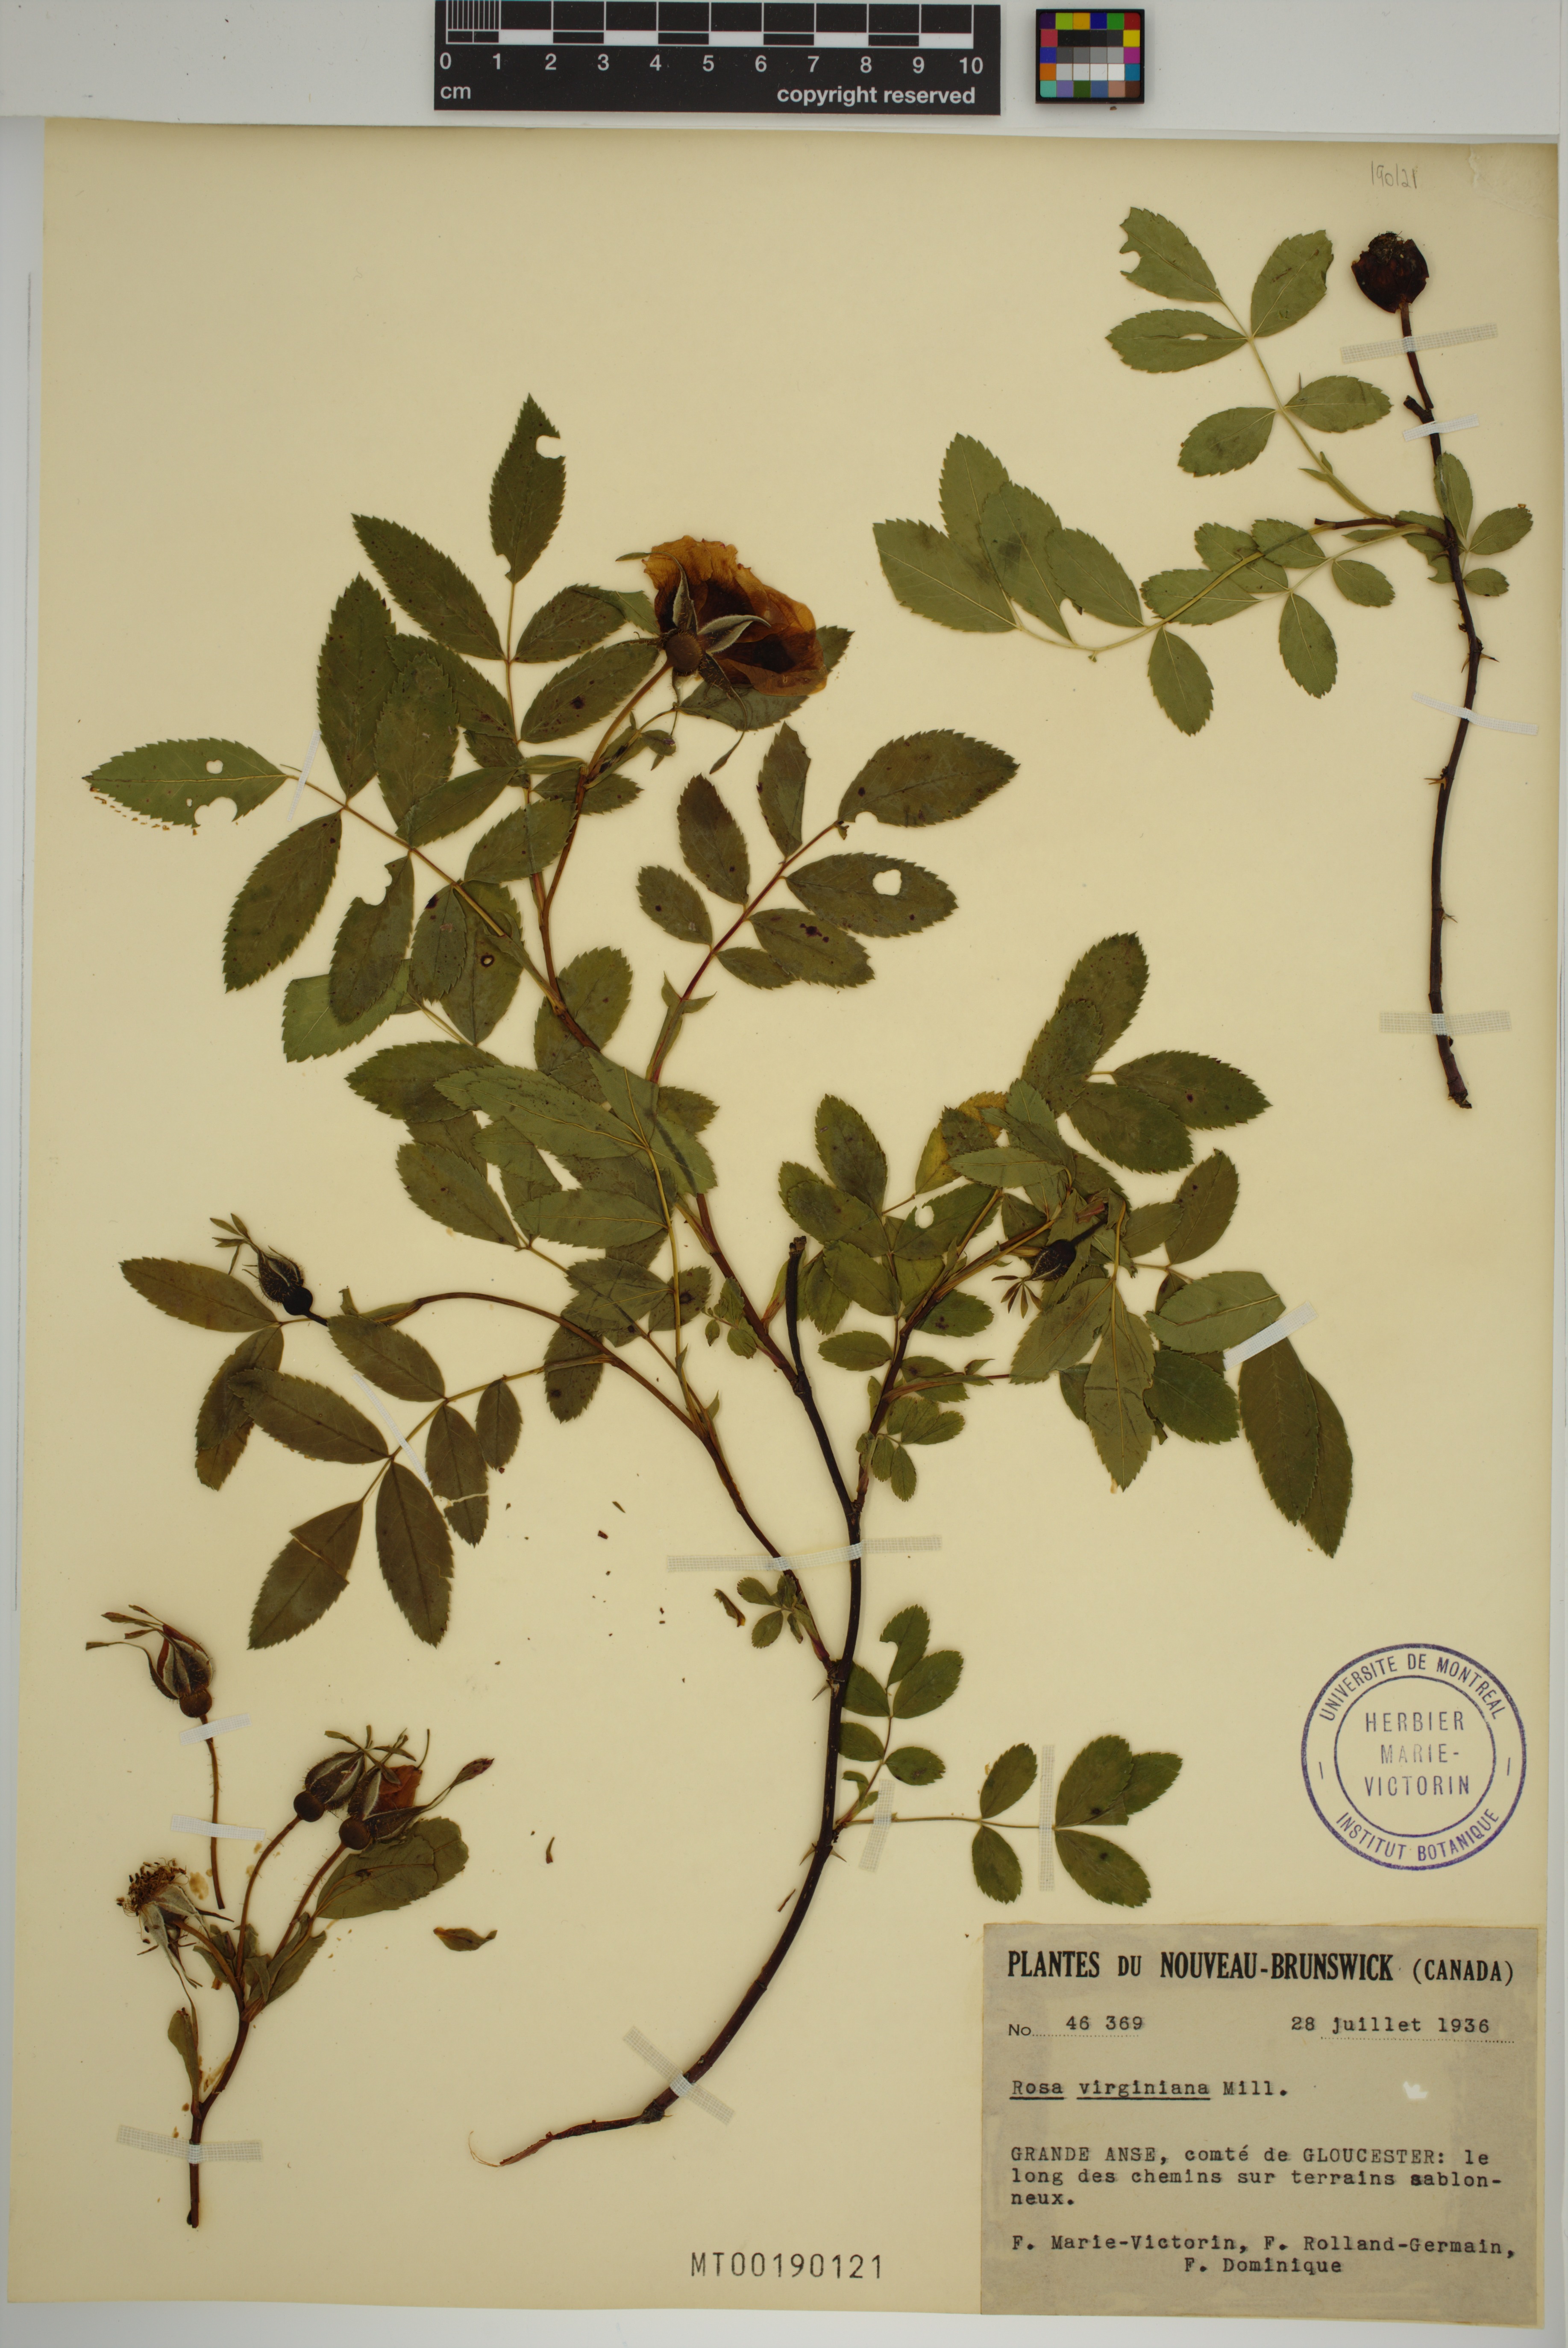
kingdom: Plantae
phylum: Tracheophyta
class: Magnoliopsida
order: Rosales
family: Rosaceae
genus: Rosa
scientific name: Rosa carolina
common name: Pasture rose
